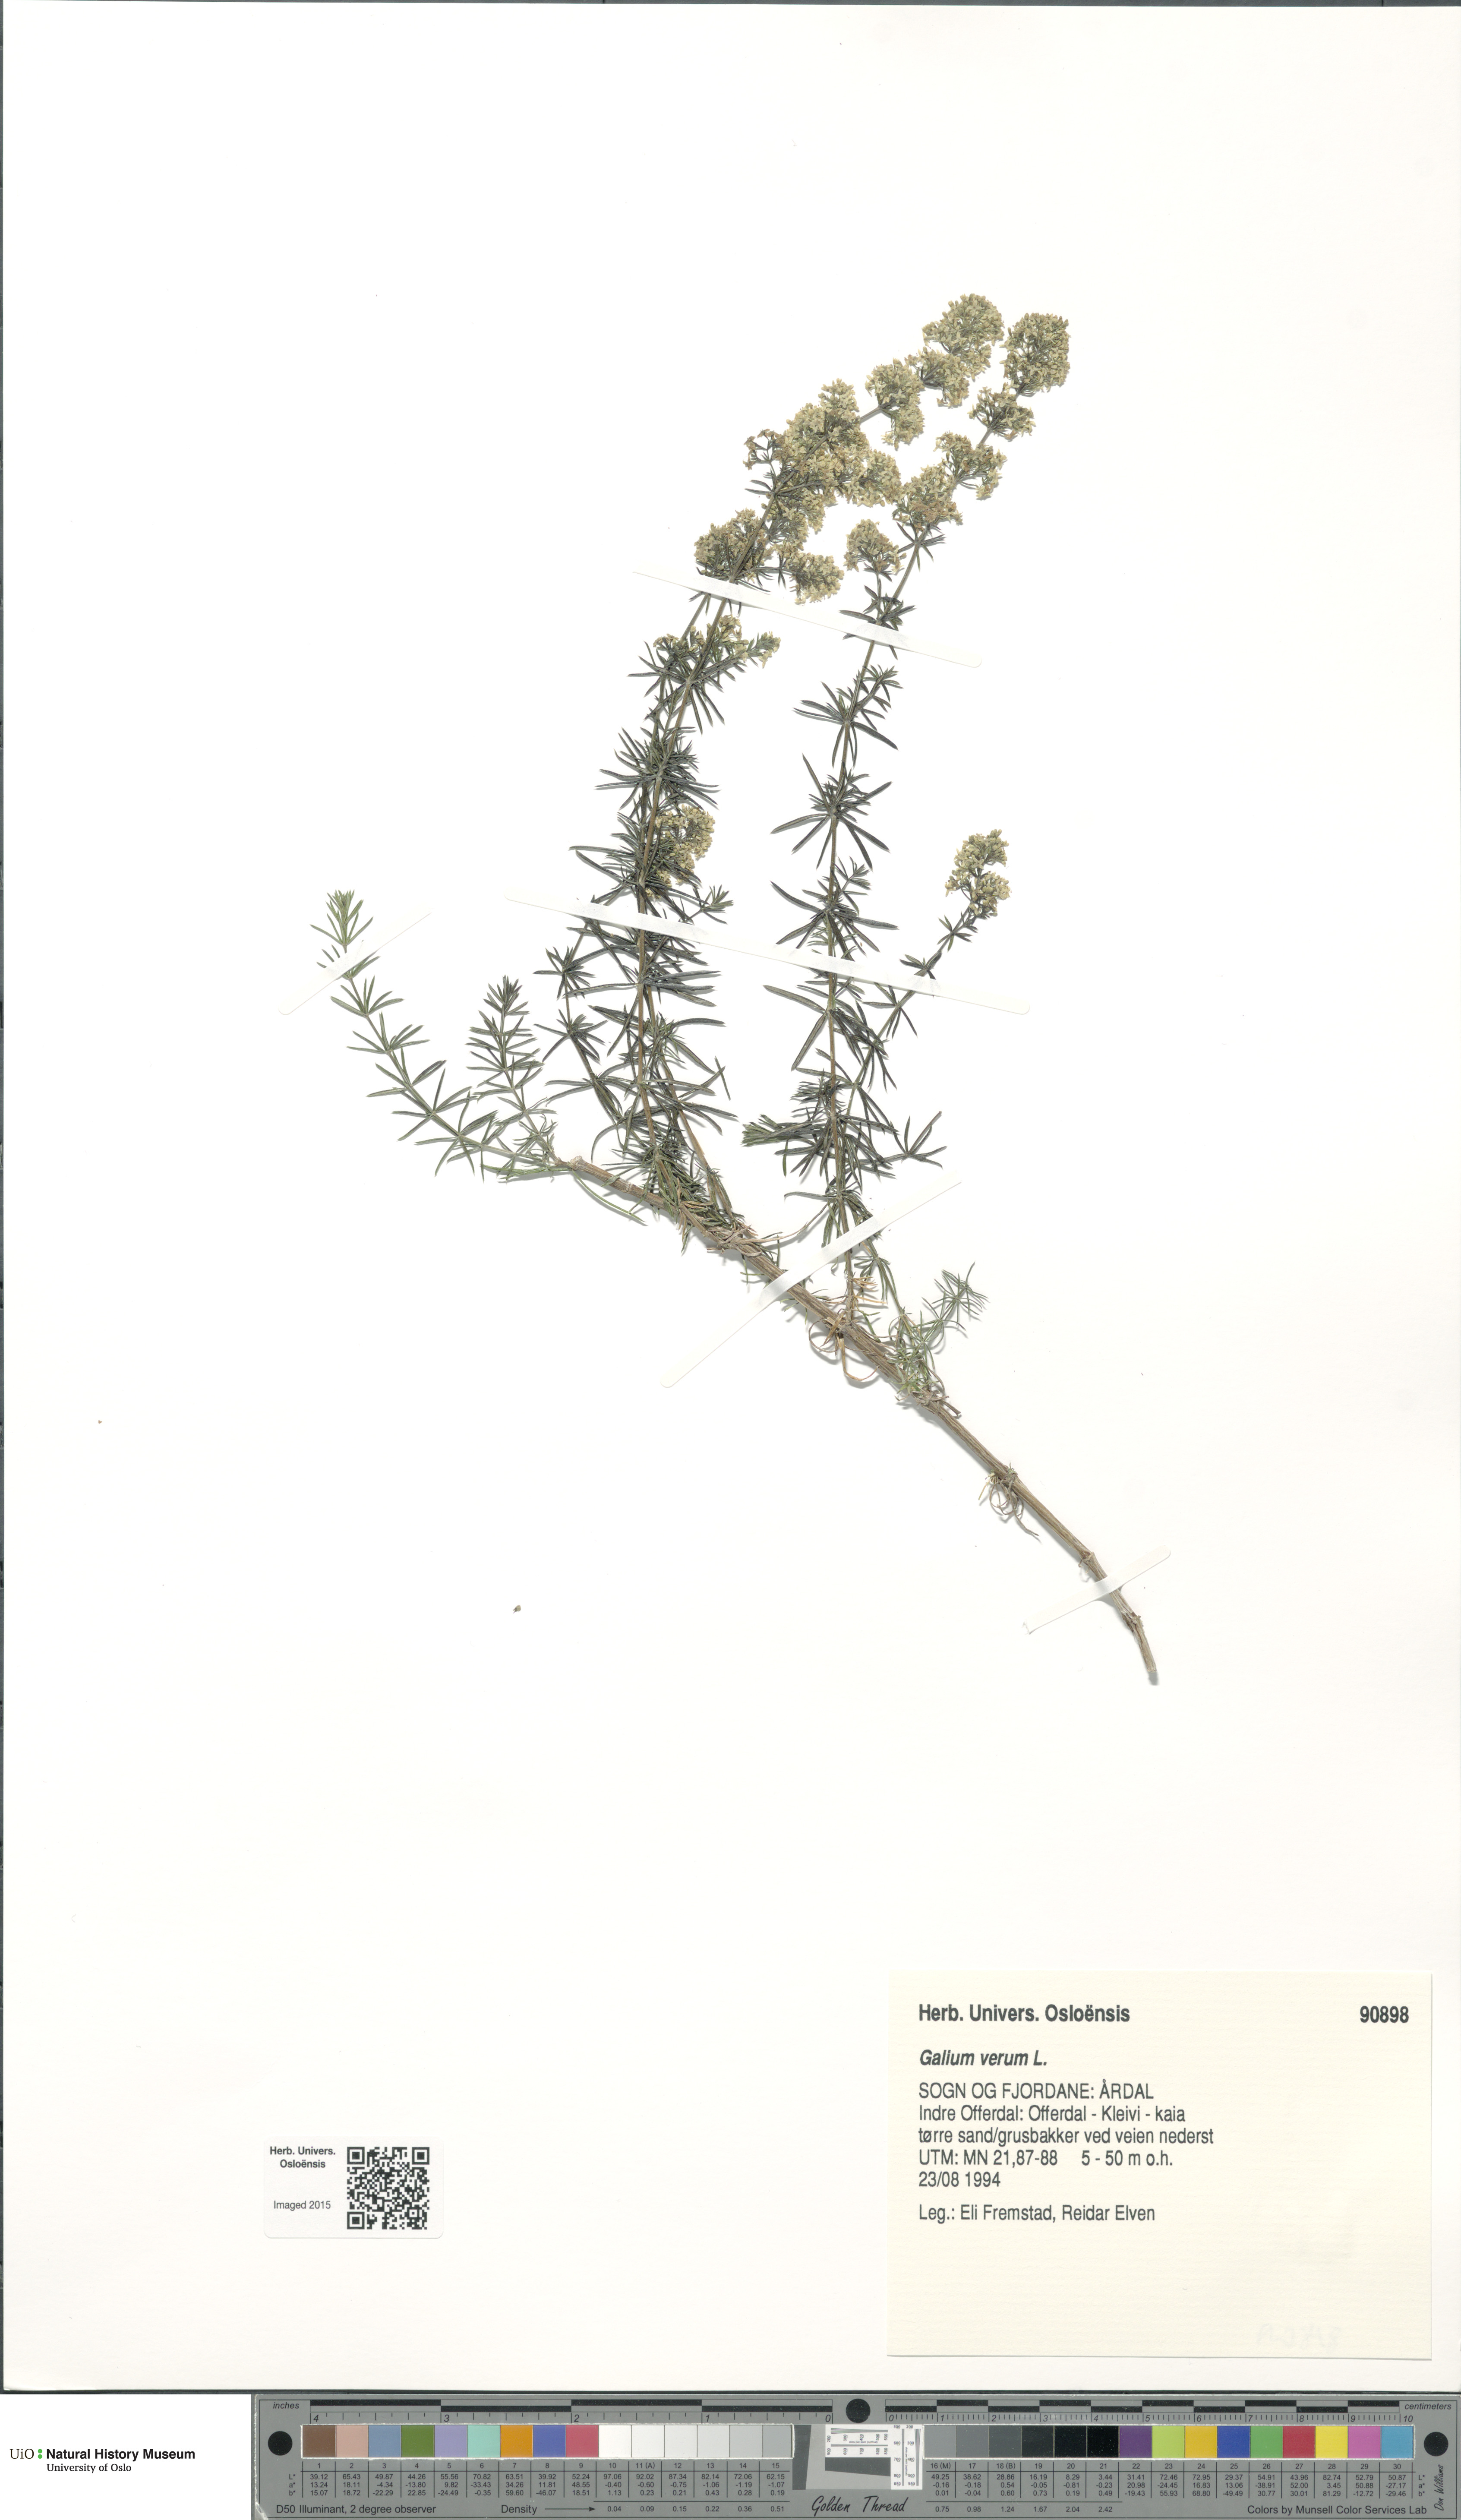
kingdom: Plantae
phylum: Tracheophyta
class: Magnoliopsida
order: Gentianales
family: Rubiaceae
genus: Galium
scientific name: Galium verum
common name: Lady's bedstraw
